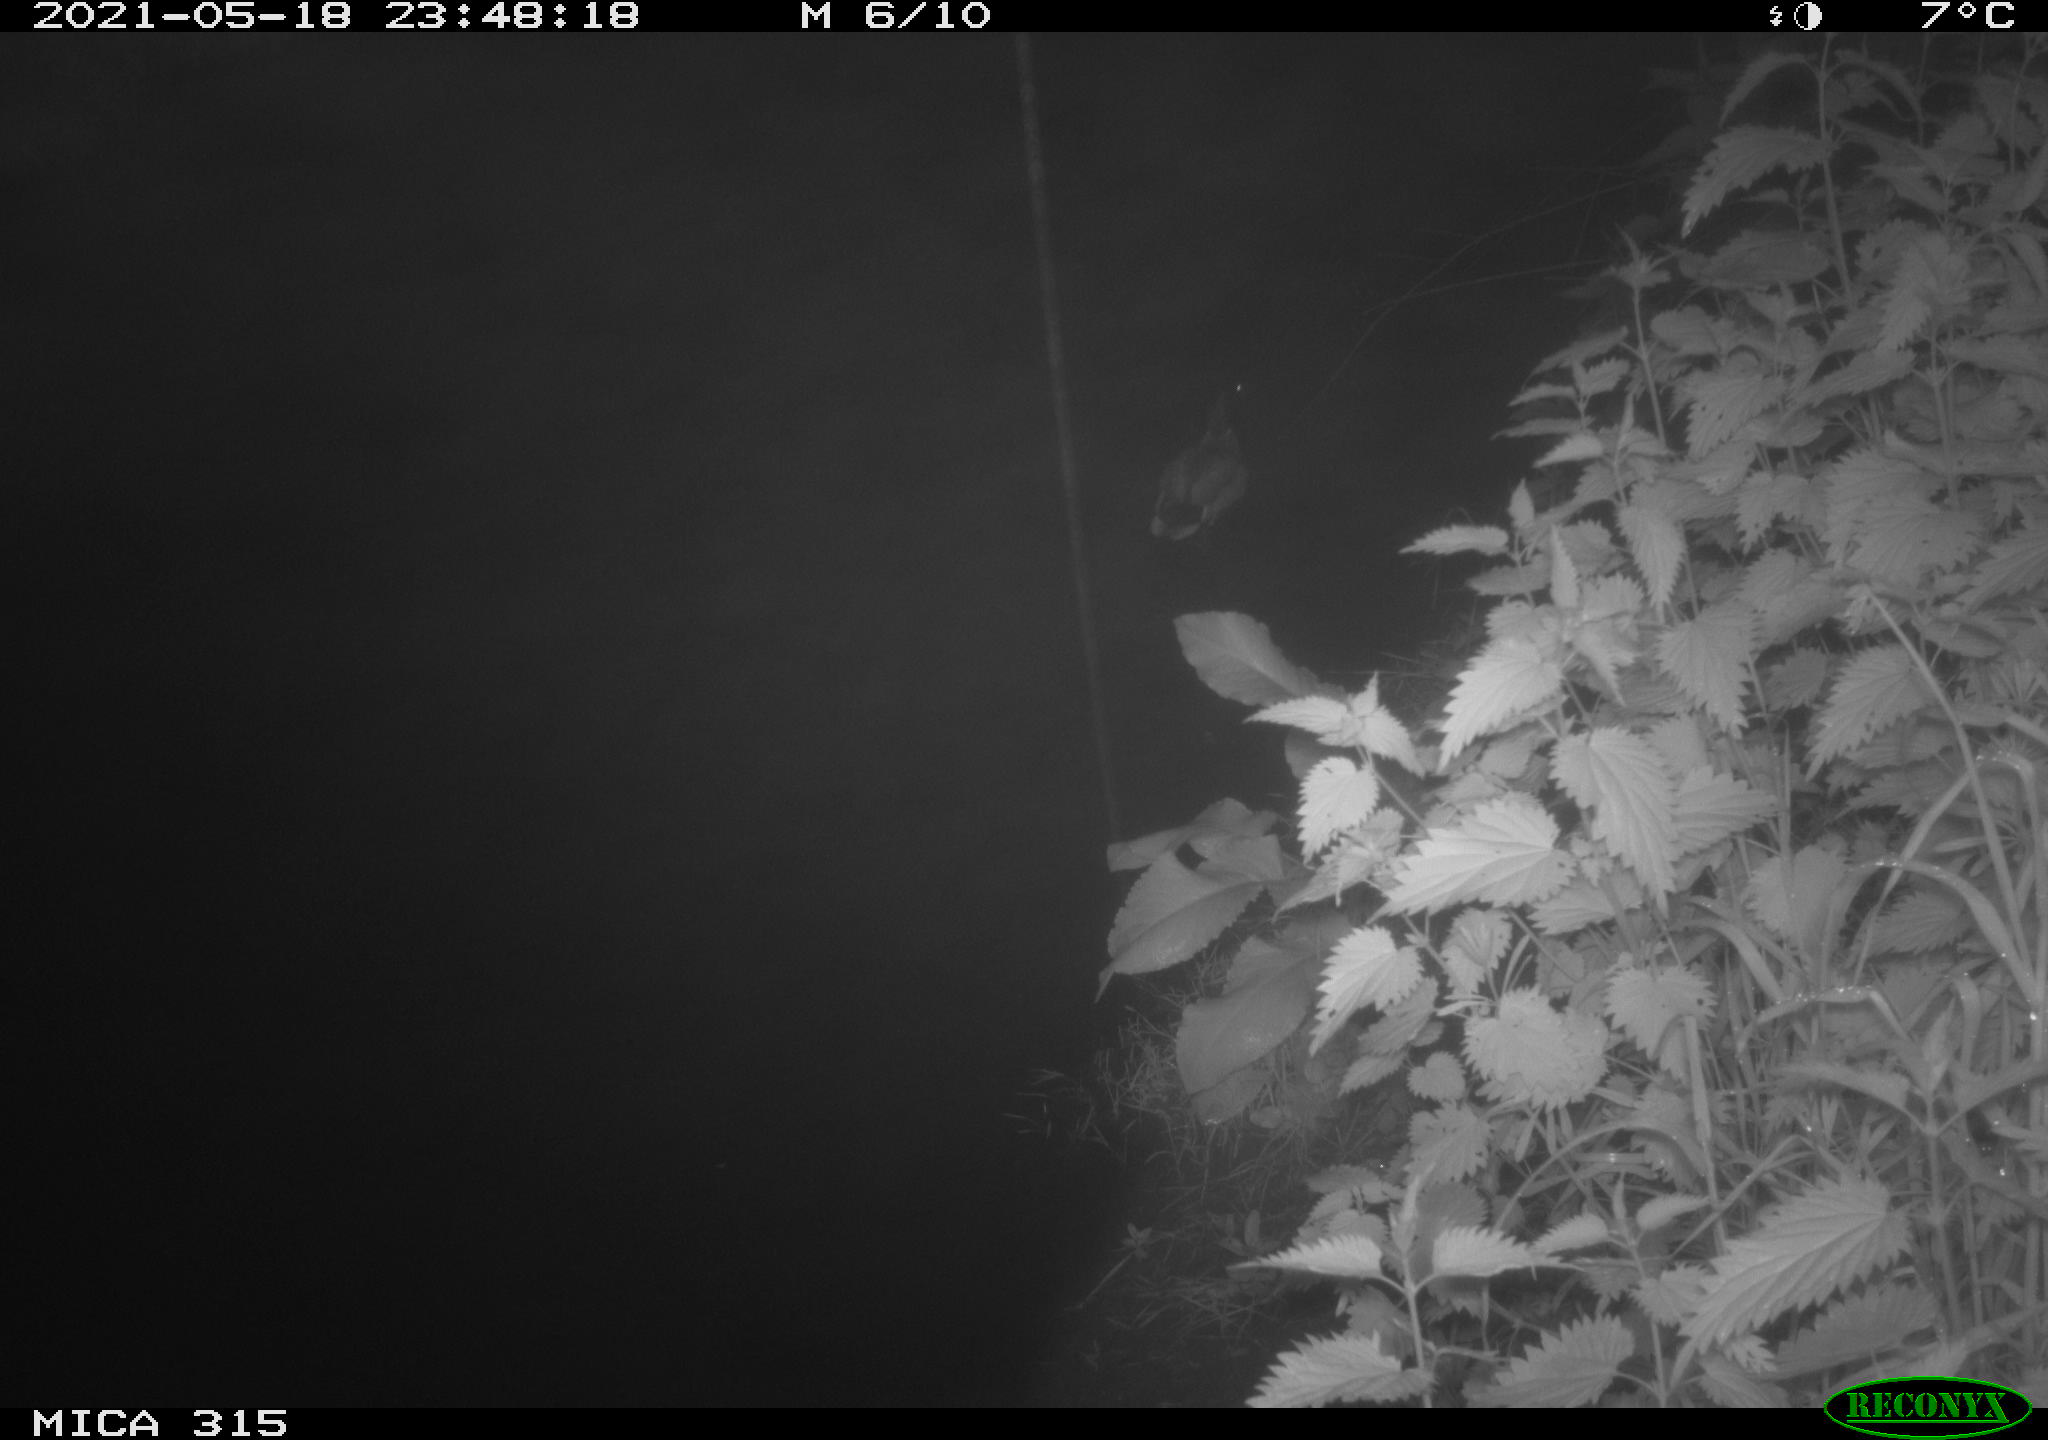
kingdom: Animalia
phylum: Chordata
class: Aves
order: Anseriformes
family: Anatidae
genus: Anas
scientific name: Anas
